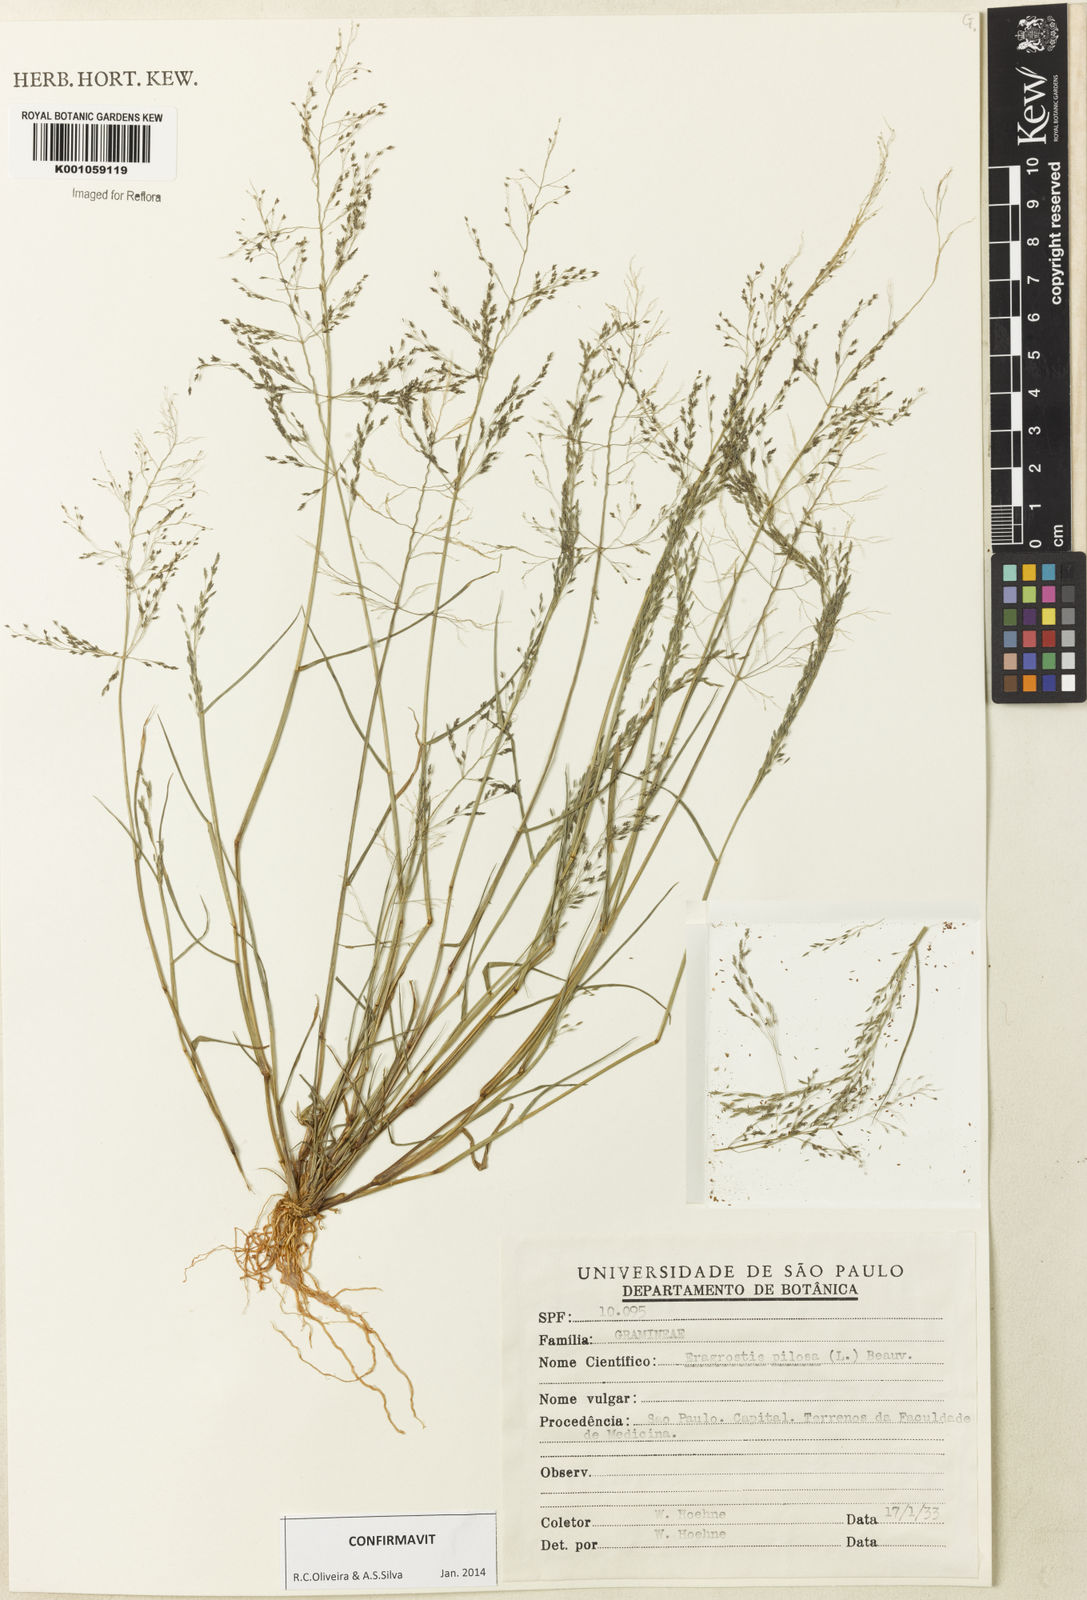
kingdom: Plantae
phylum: Tracheophyta
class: Liliopsida
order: Poales
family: Poaceae
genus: Eragrostis
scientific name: Eragrostis pilosa
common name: Indian lovegrass
